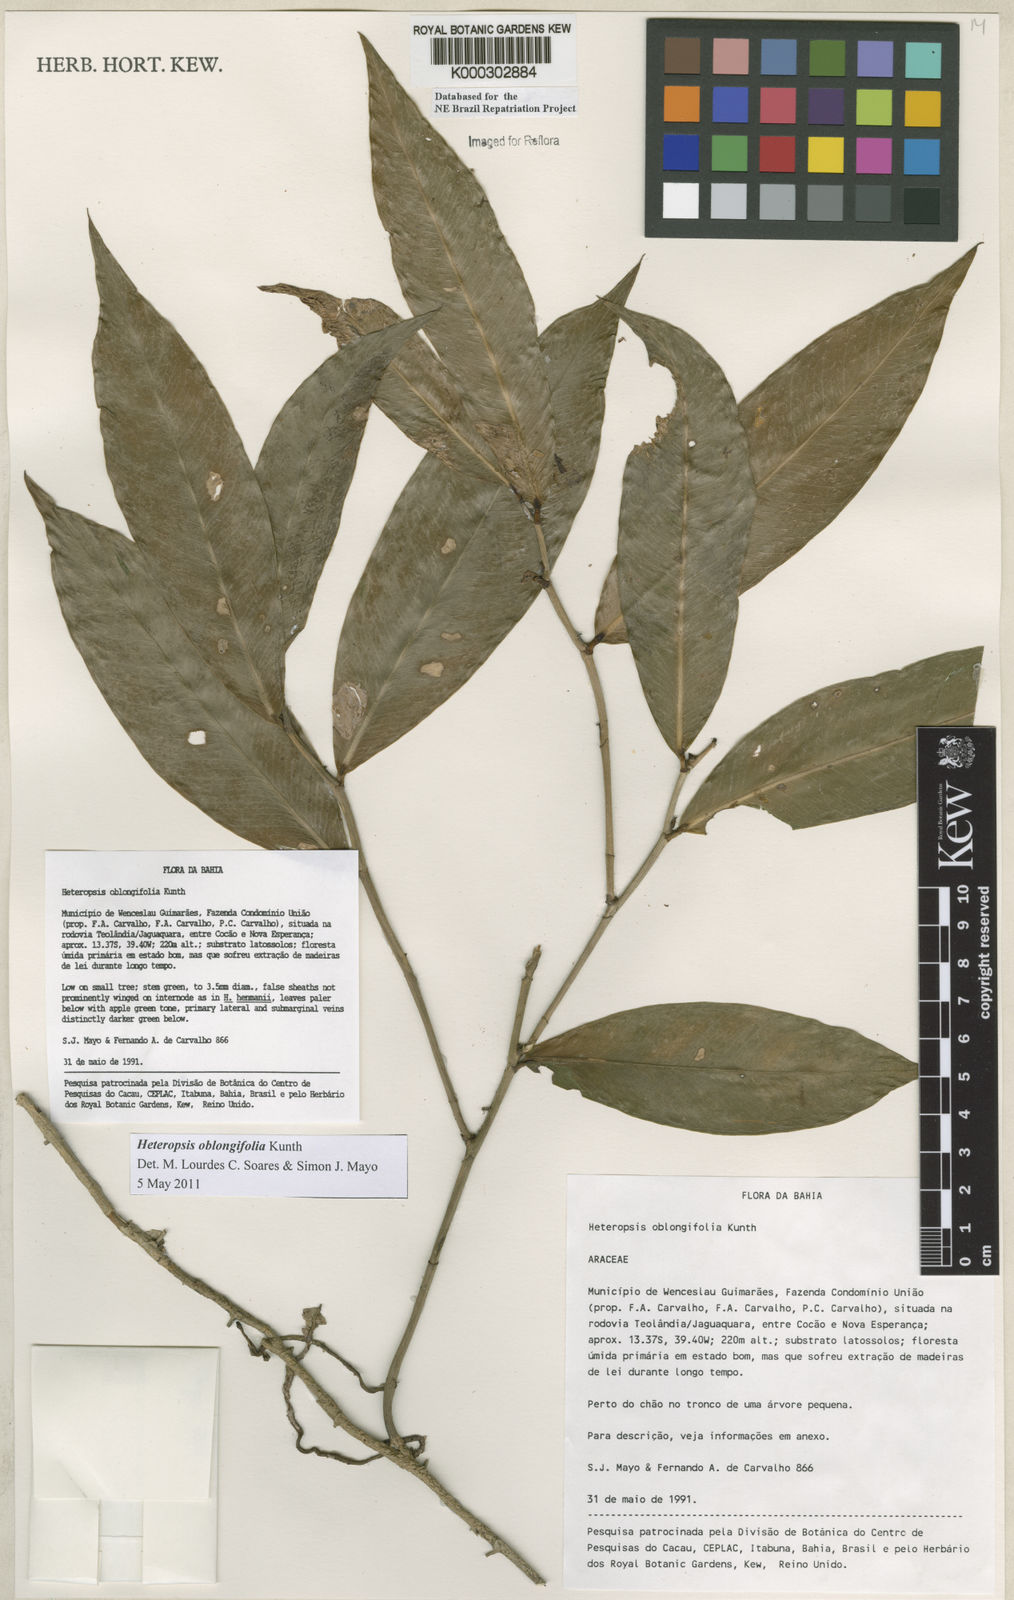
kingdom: Plantae
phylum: Tracheophyta
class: Liliopsida
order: Alismatales
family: Araceae
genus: Heteropsis
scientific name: Heteropsis oblongifolia
